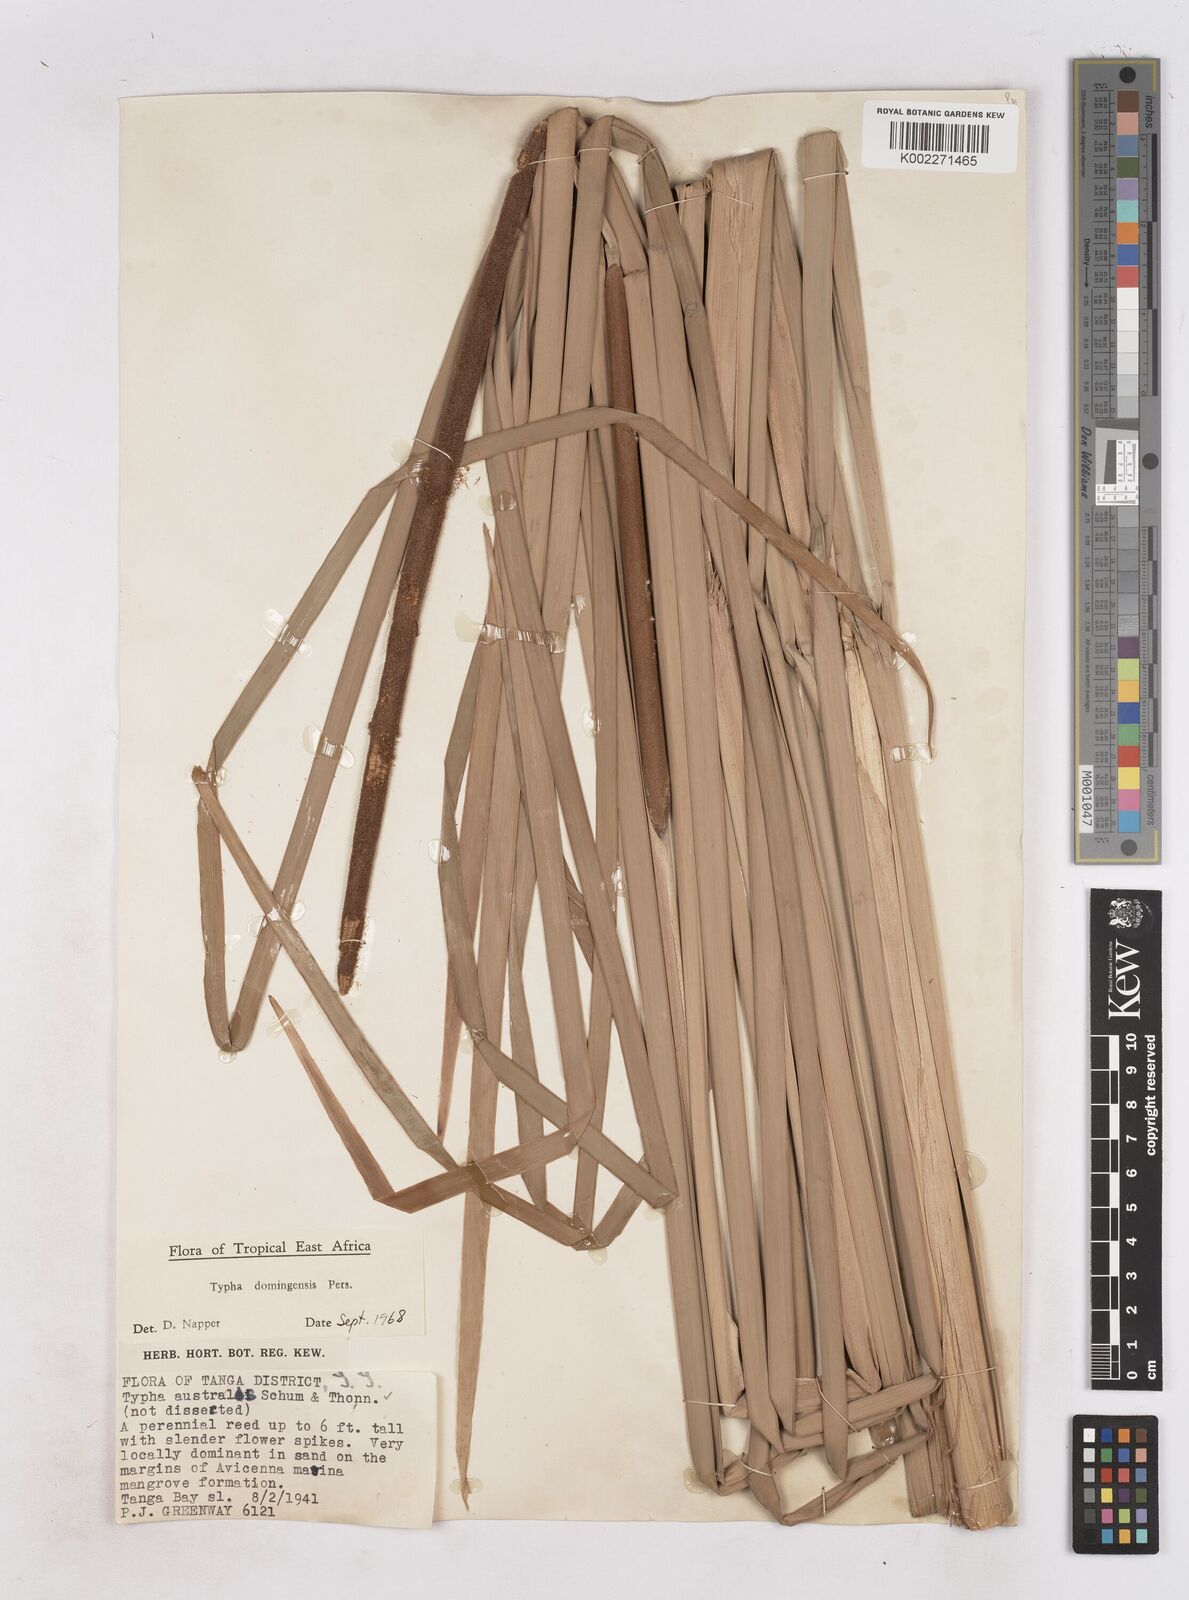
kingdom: Plantae
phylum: Tracheophyta
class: Liliopsida
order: Poales
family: Typhaceae
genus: Typha
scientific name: Typha domingensis
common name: Southern cattail
